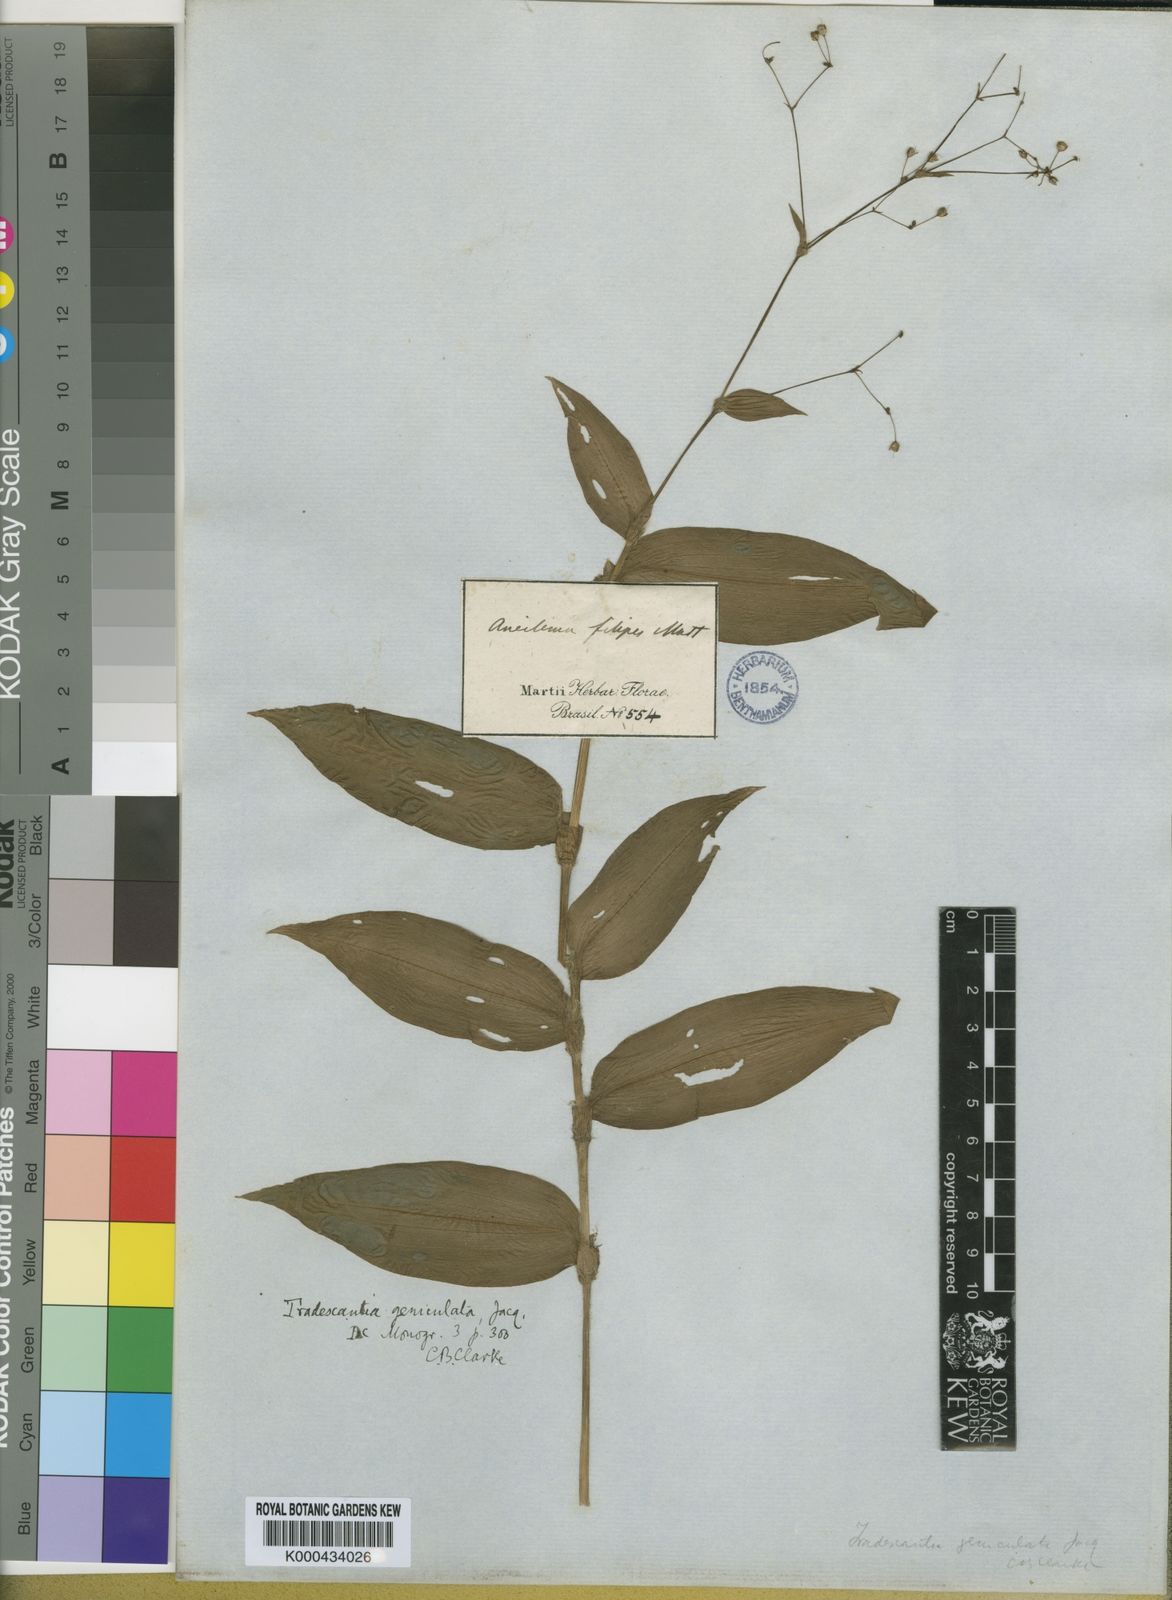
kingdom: Plantae
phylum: Tracheophyta
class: Liliopsida
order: Commelinales
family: Commelinaceae
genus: Gibasis
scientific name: Gibasis geniculata
